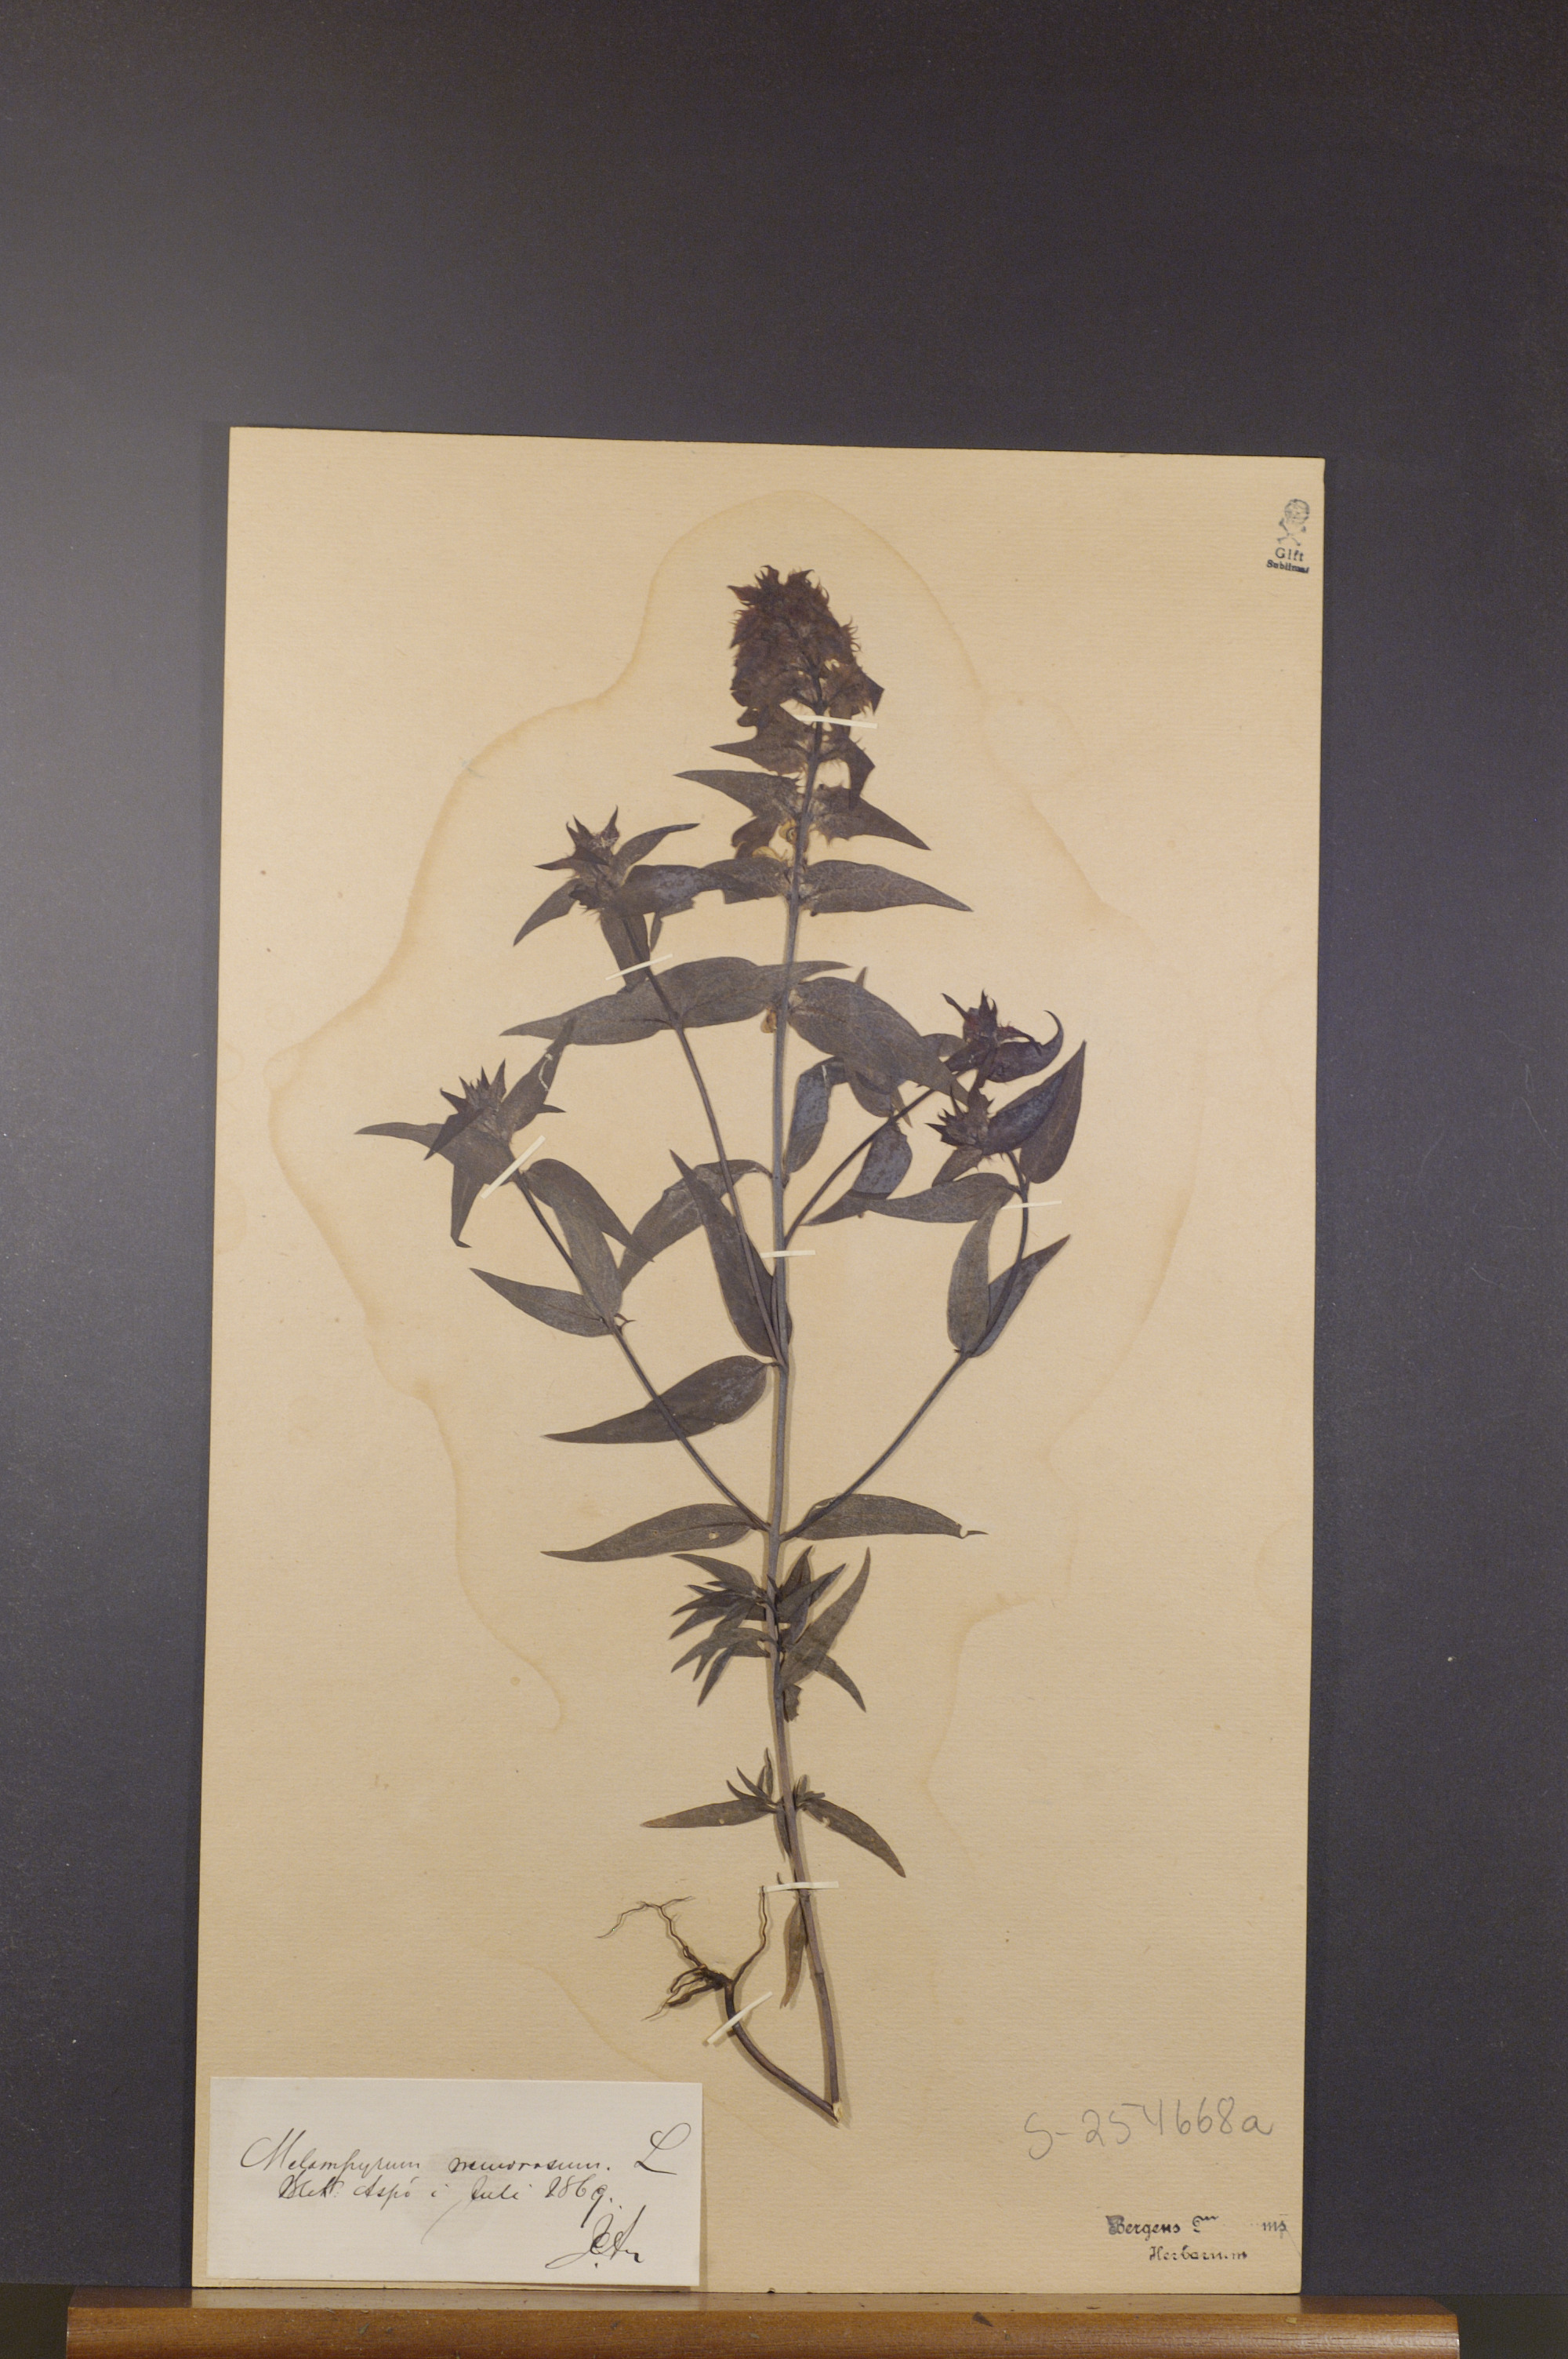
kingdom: Plantae
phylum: Tracheophyta
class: Magnoliopsida
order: Lamiales
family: Orobanchaceae
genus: Melampyrum
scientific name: Melampyrum nemorosum
